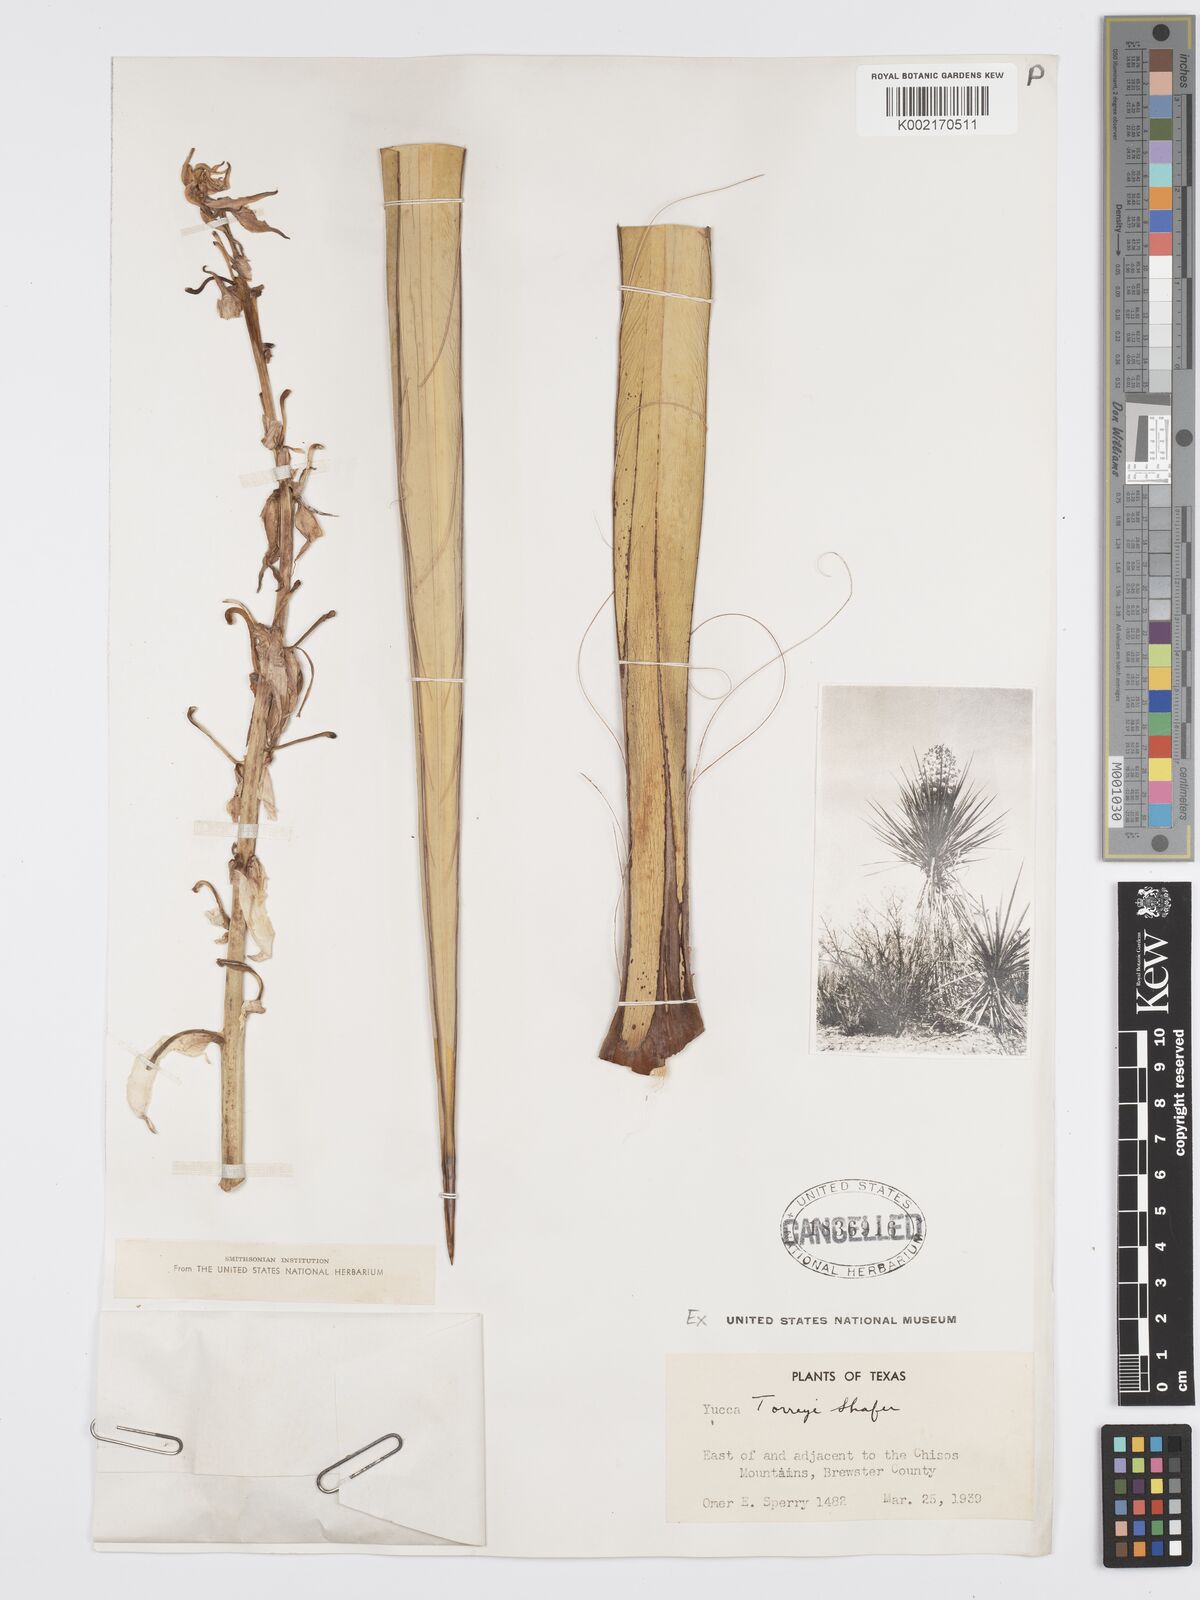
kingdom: Plantae
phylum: Tracheophyta
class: Liliopsida
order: Asparagales
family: Asparagaceae
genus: Yucca
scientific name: Yucca treculiana
